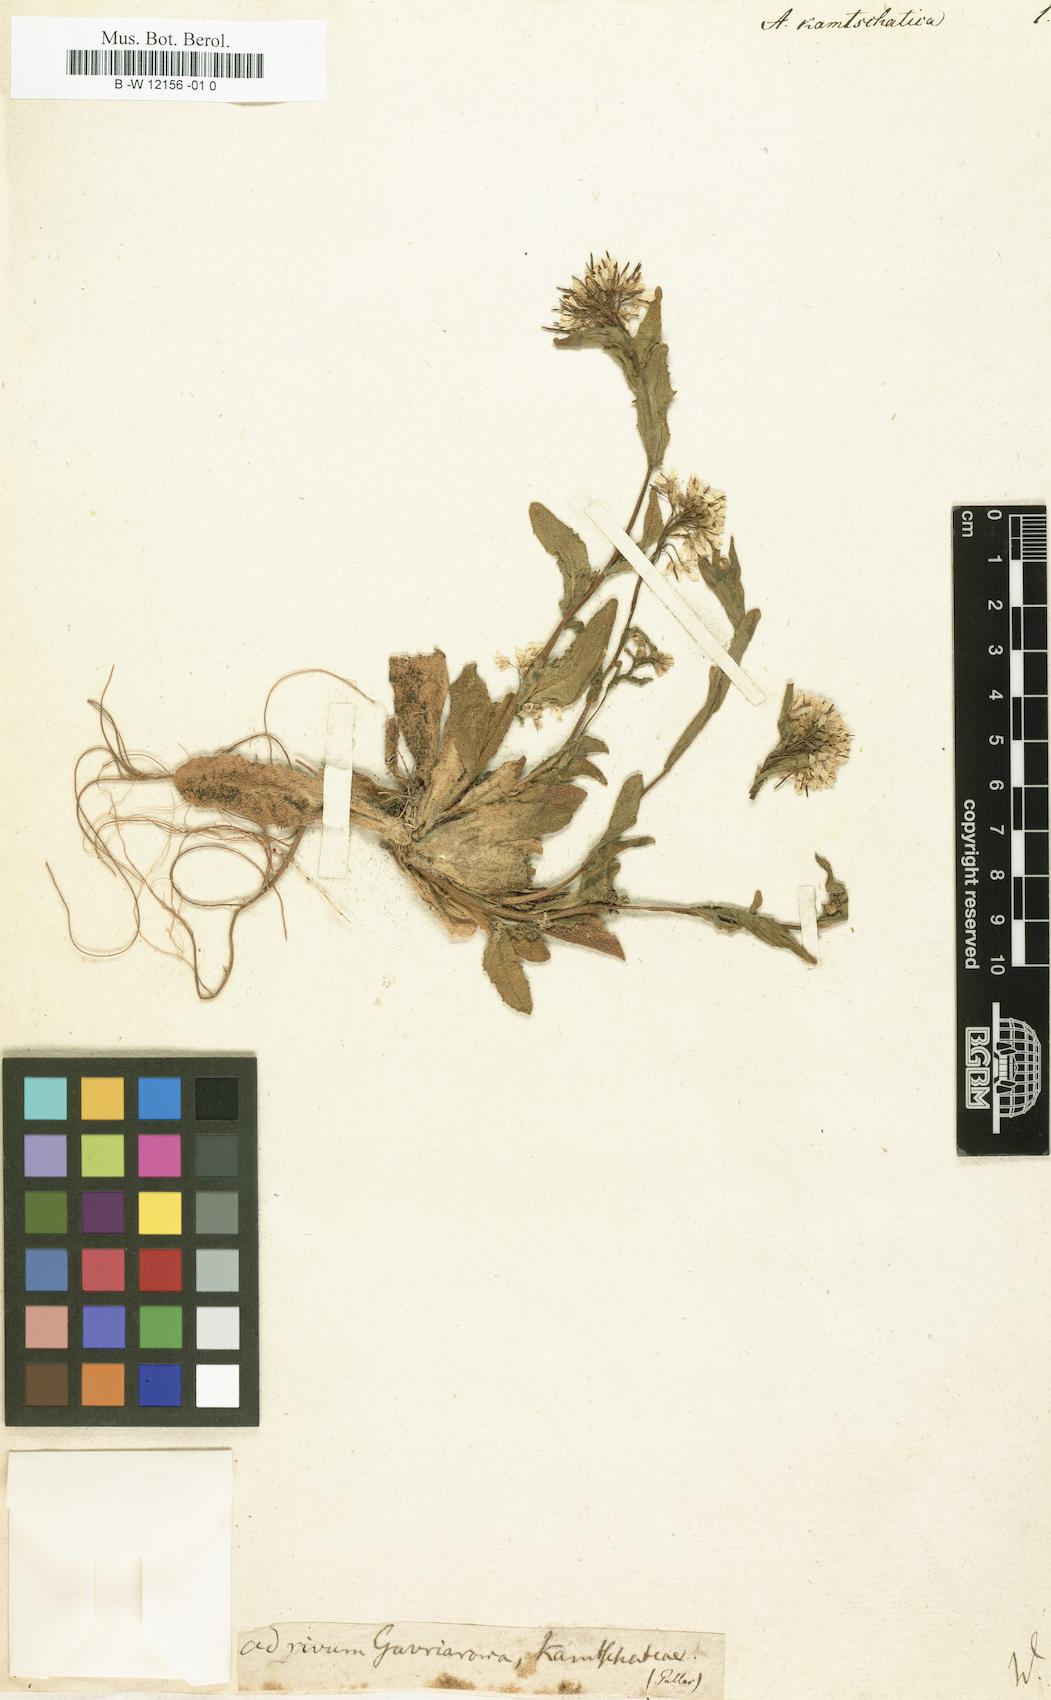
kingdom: Plantae
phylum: Tracheophyta
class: Magnoliopsida
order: Brassicales
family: Brassicaceae
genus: Arabis
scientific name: Arabis kamtschatica
